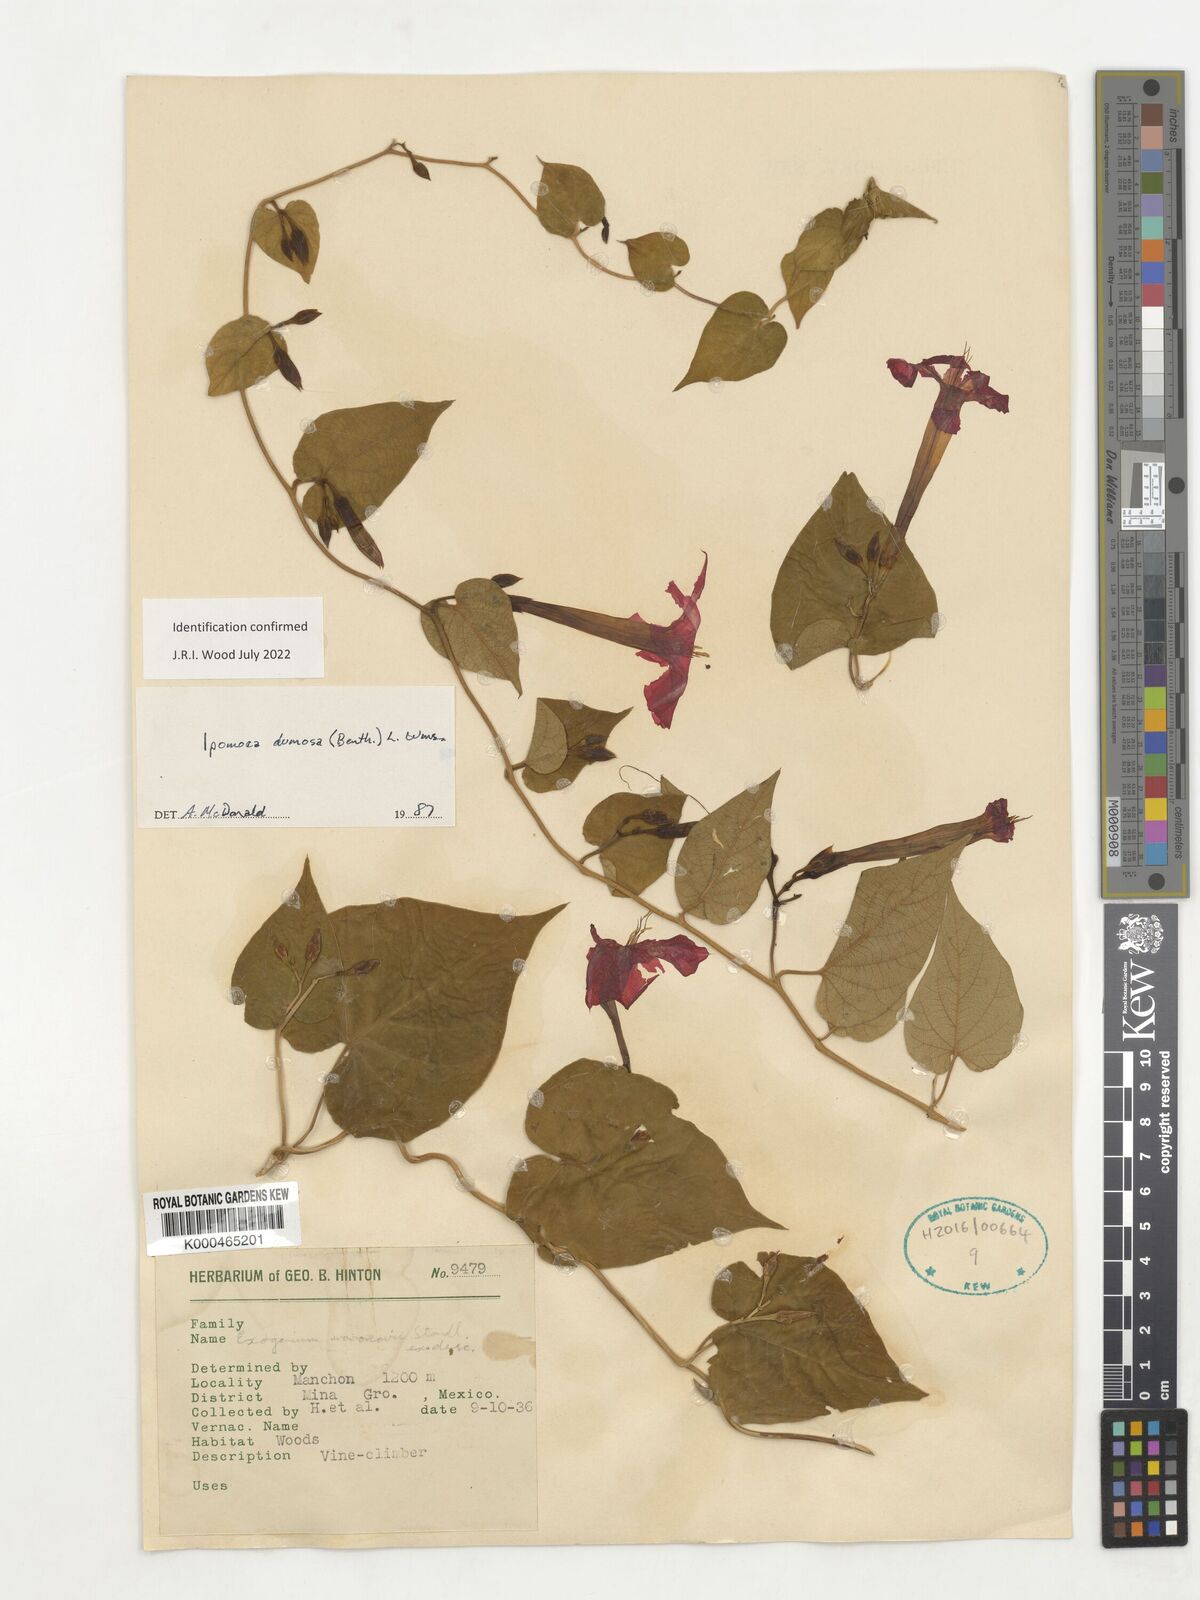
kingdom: Plantae
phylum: Tracheophyta
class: Magnoliopsida
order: Solanales
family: Convolvulaceae
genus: Ipomoea
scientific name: Ipomoea dumosa
